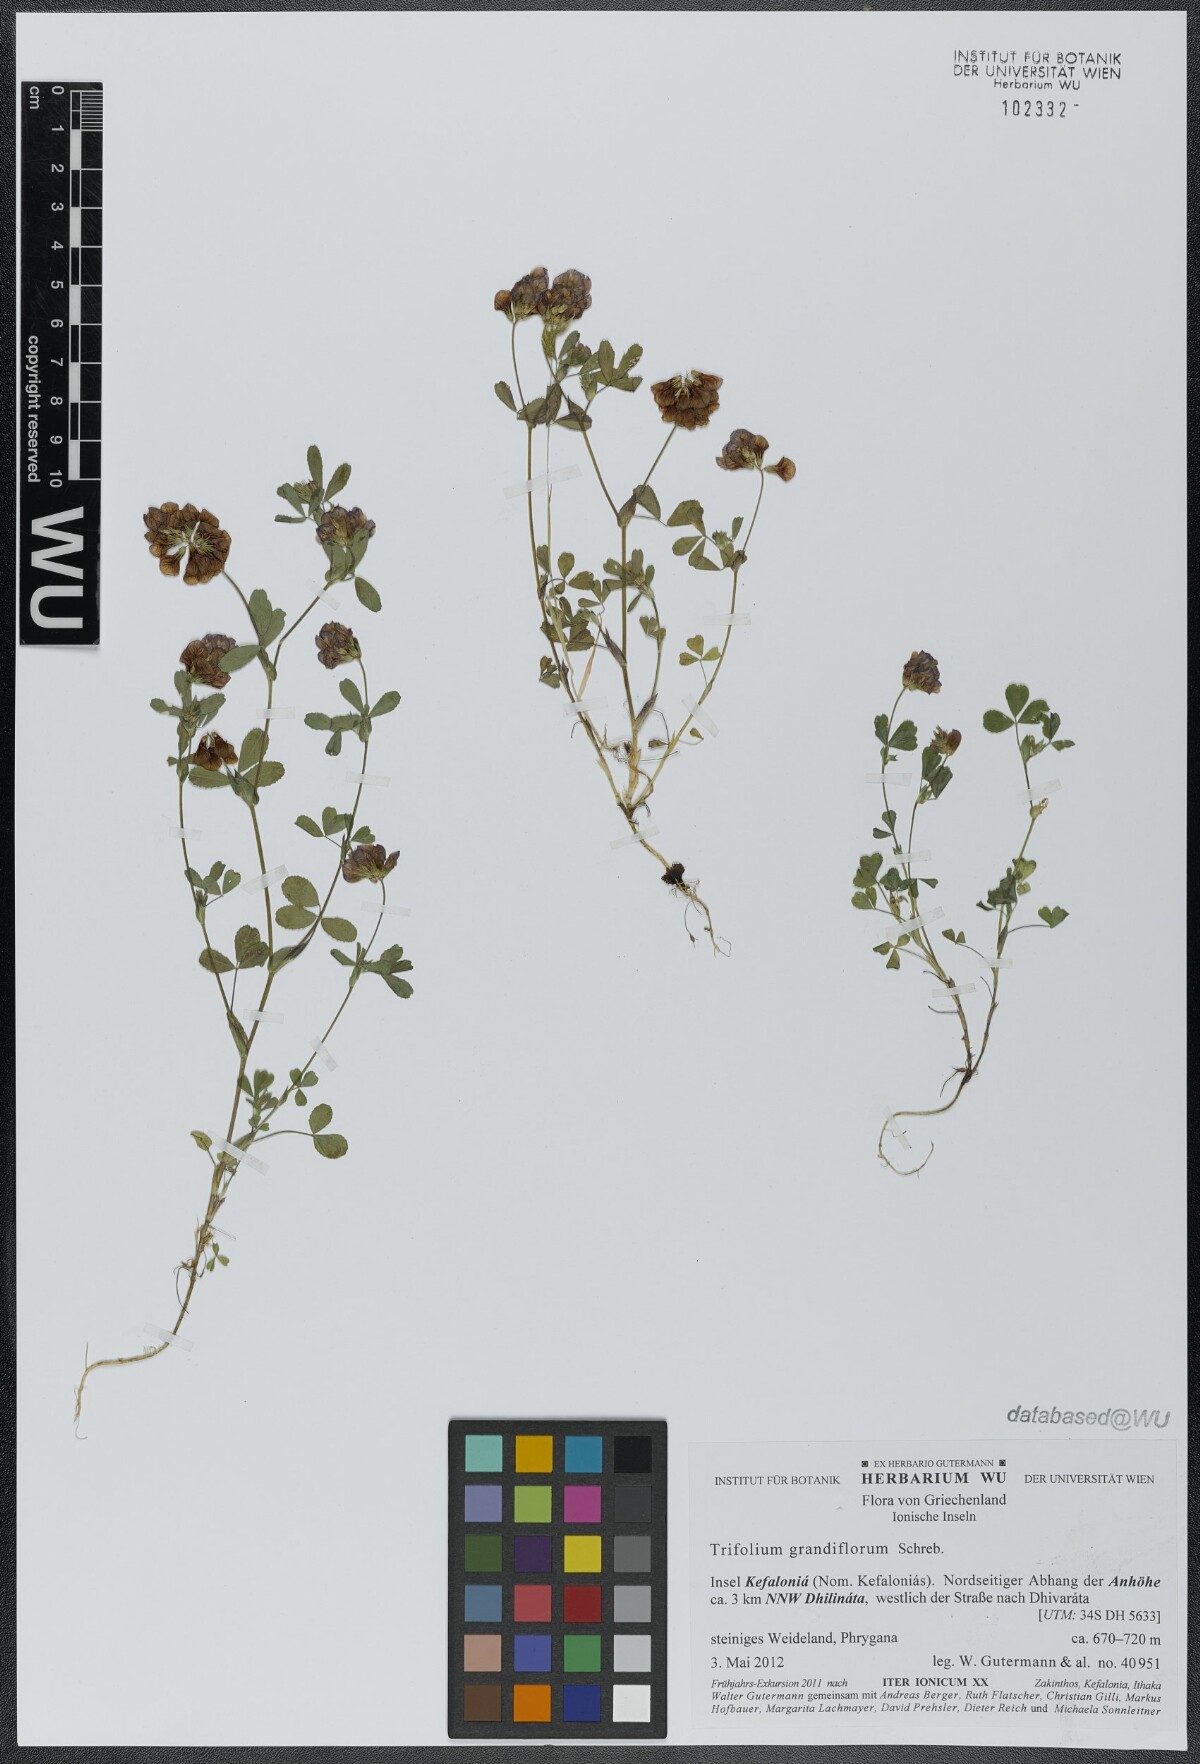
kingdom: Plantae
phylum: Tracheophyta
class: Magnoliopsida
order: Fabales
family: Fabaceae
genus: Trifolium
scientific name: Trifolium grandiflorum
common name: Large-flower hop clover
